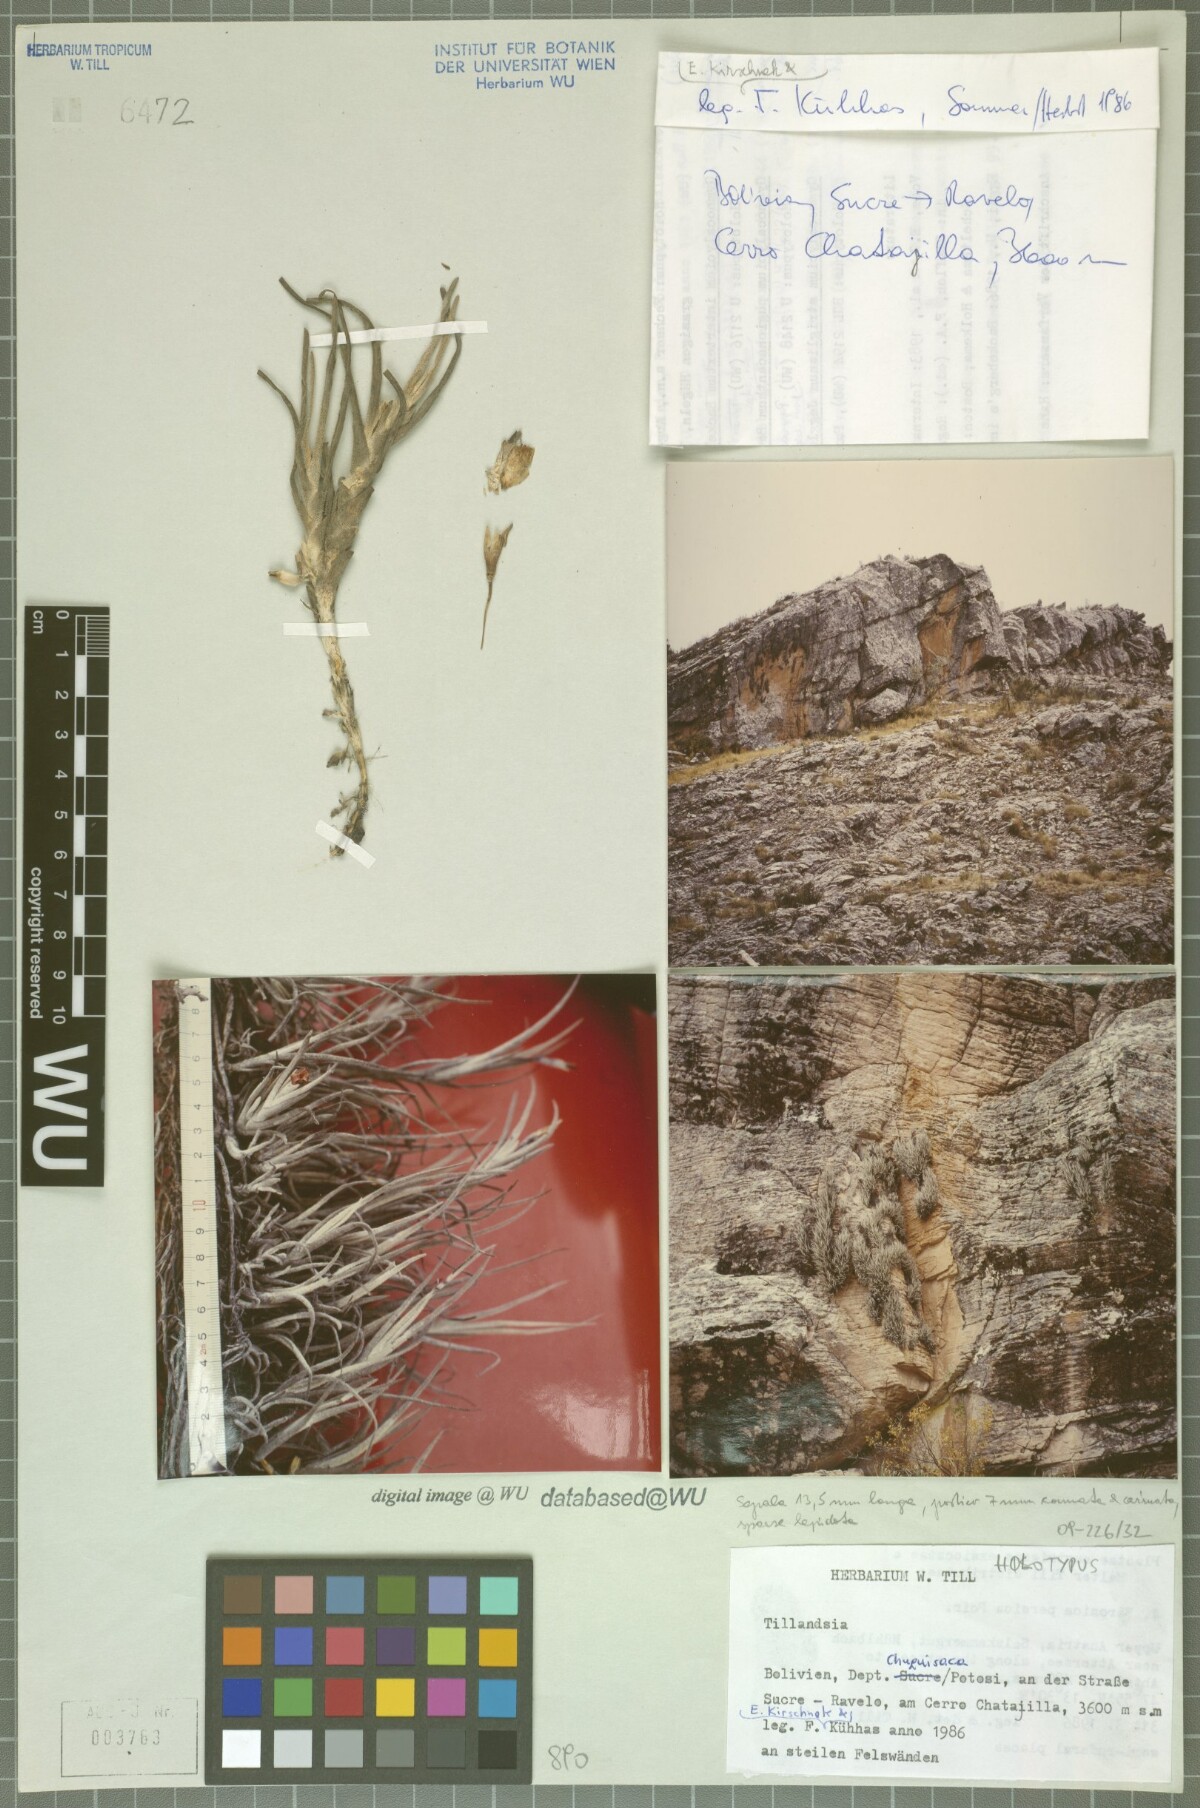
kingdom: Plantae
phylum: Tracheophyta
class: Liliopsida
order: Poales
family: Bromeliaceae
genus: Tillandsia
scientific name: Tillandsia virescens
